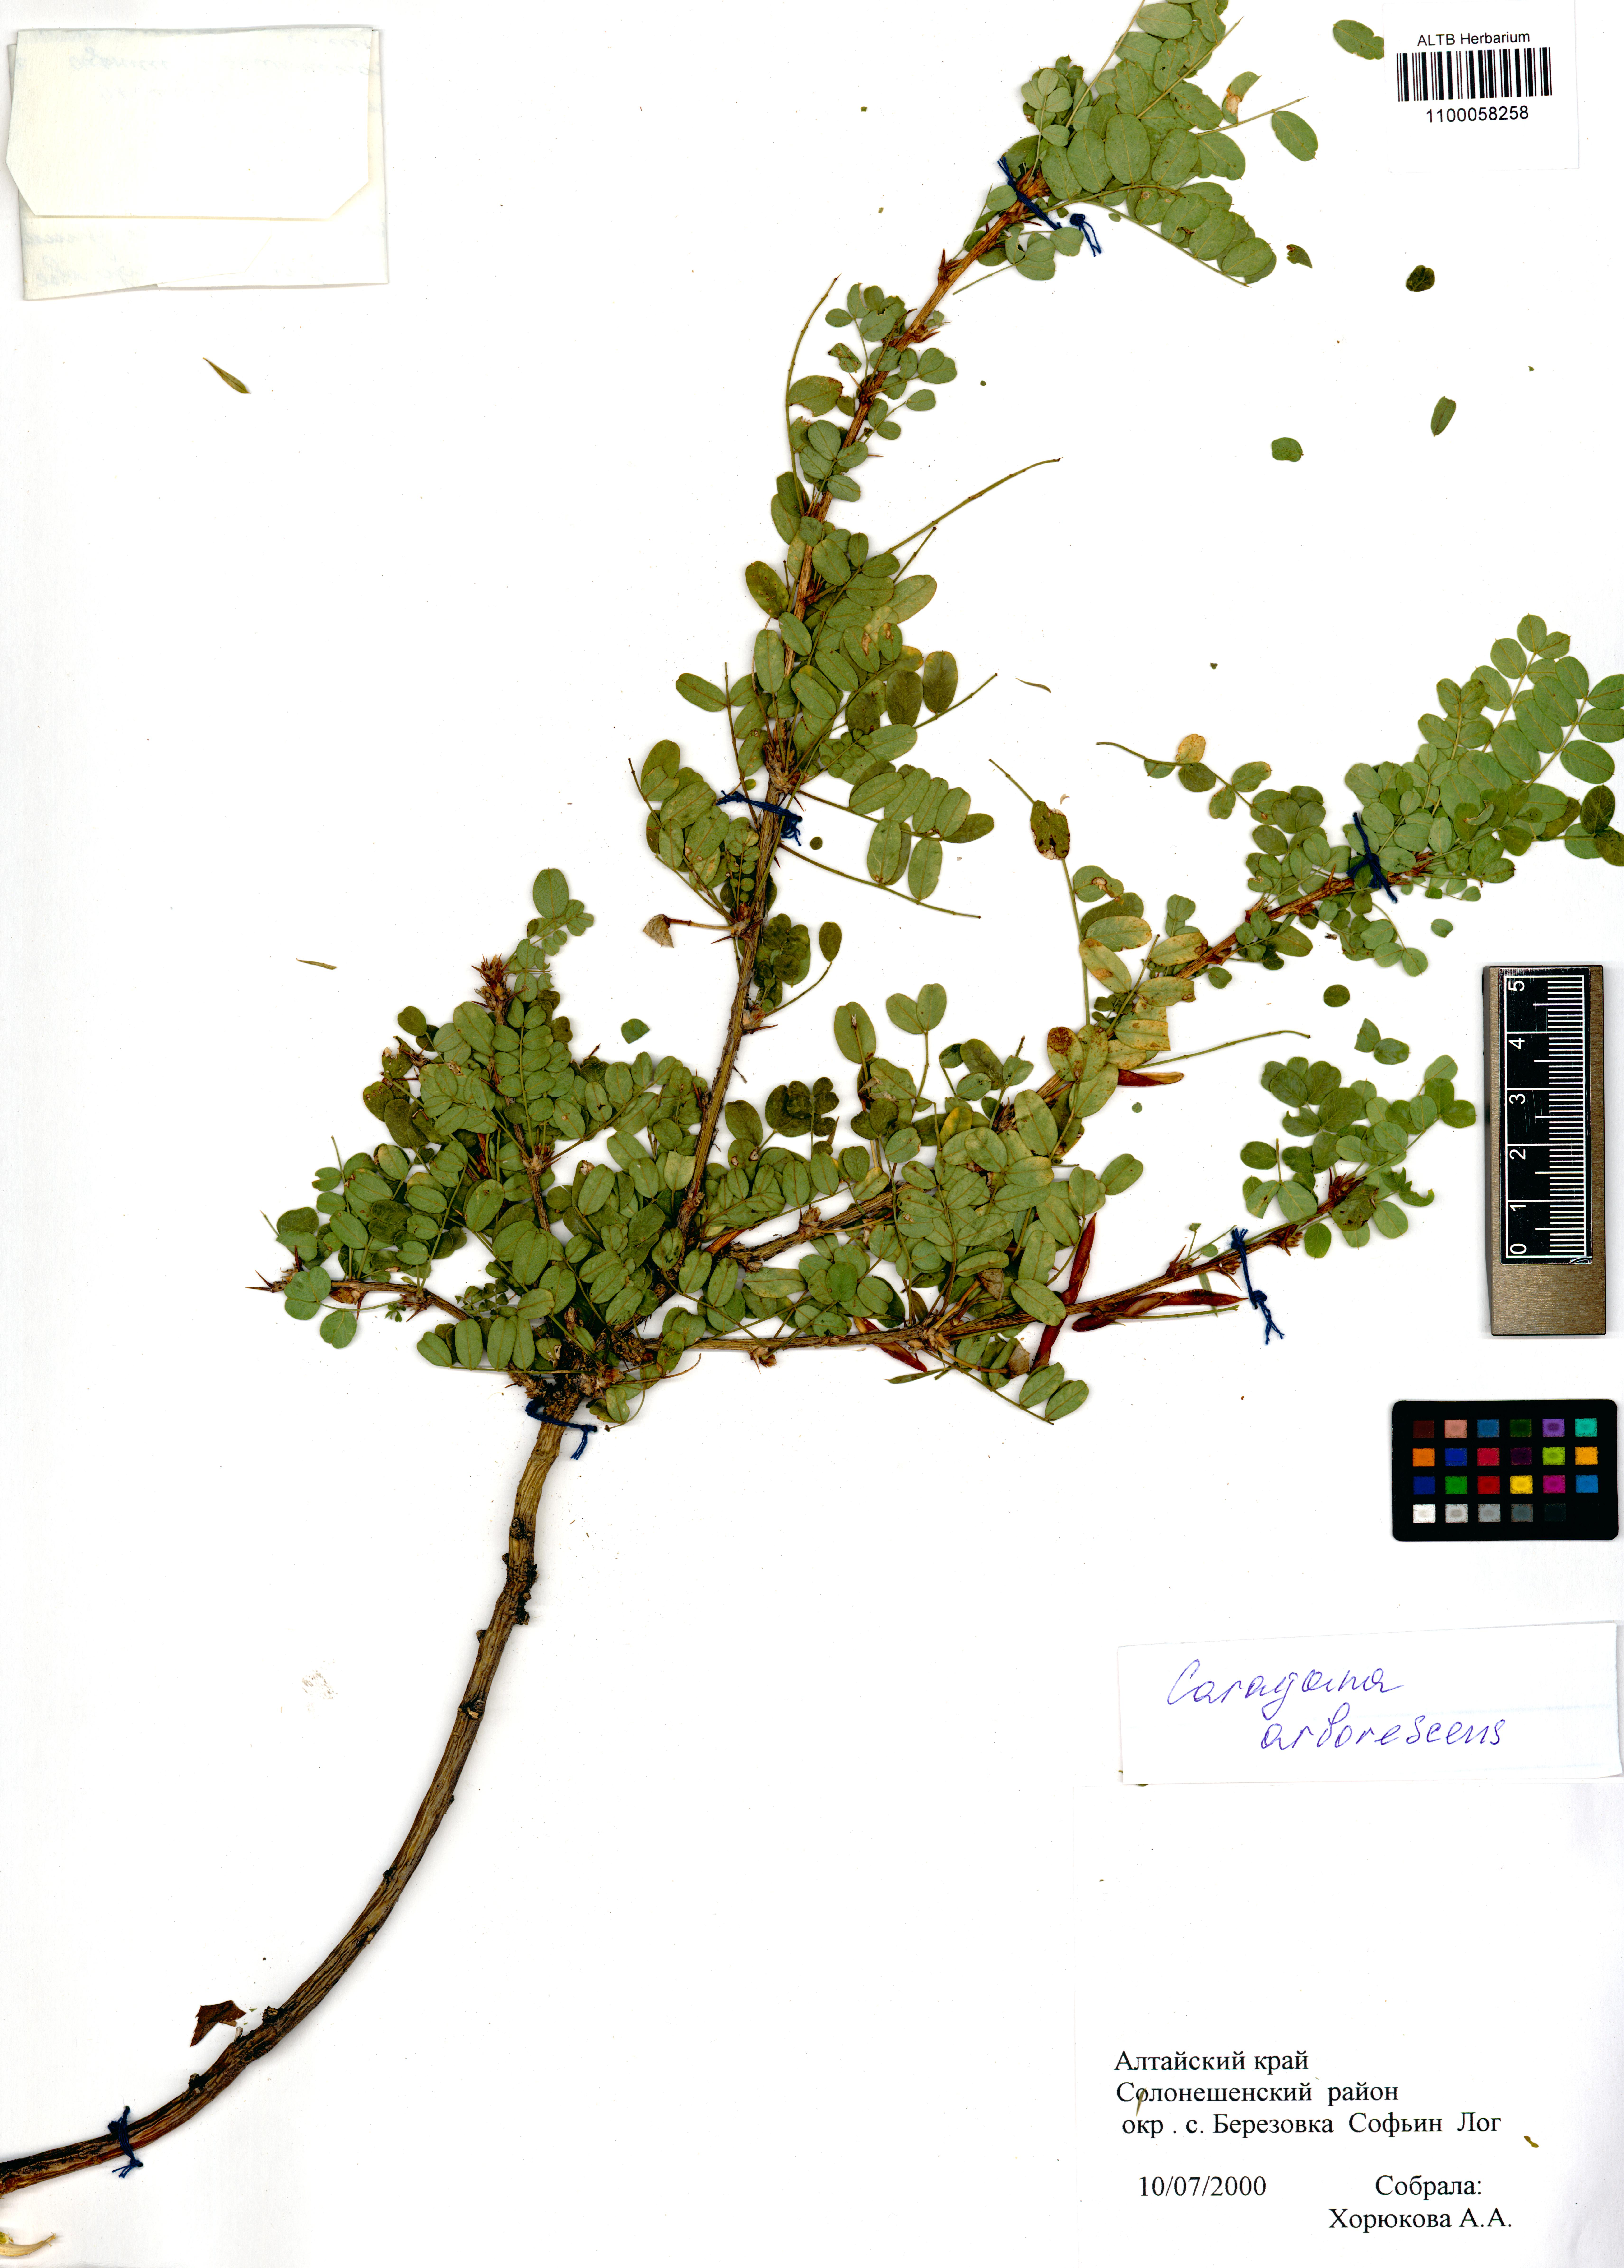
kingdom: Plantae
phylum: Tracheophyta
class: Magnoliopsida
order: Fabales
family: Fabaceae
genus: Caragana
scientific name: Caragana arborescens
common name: Siberian peashrub
